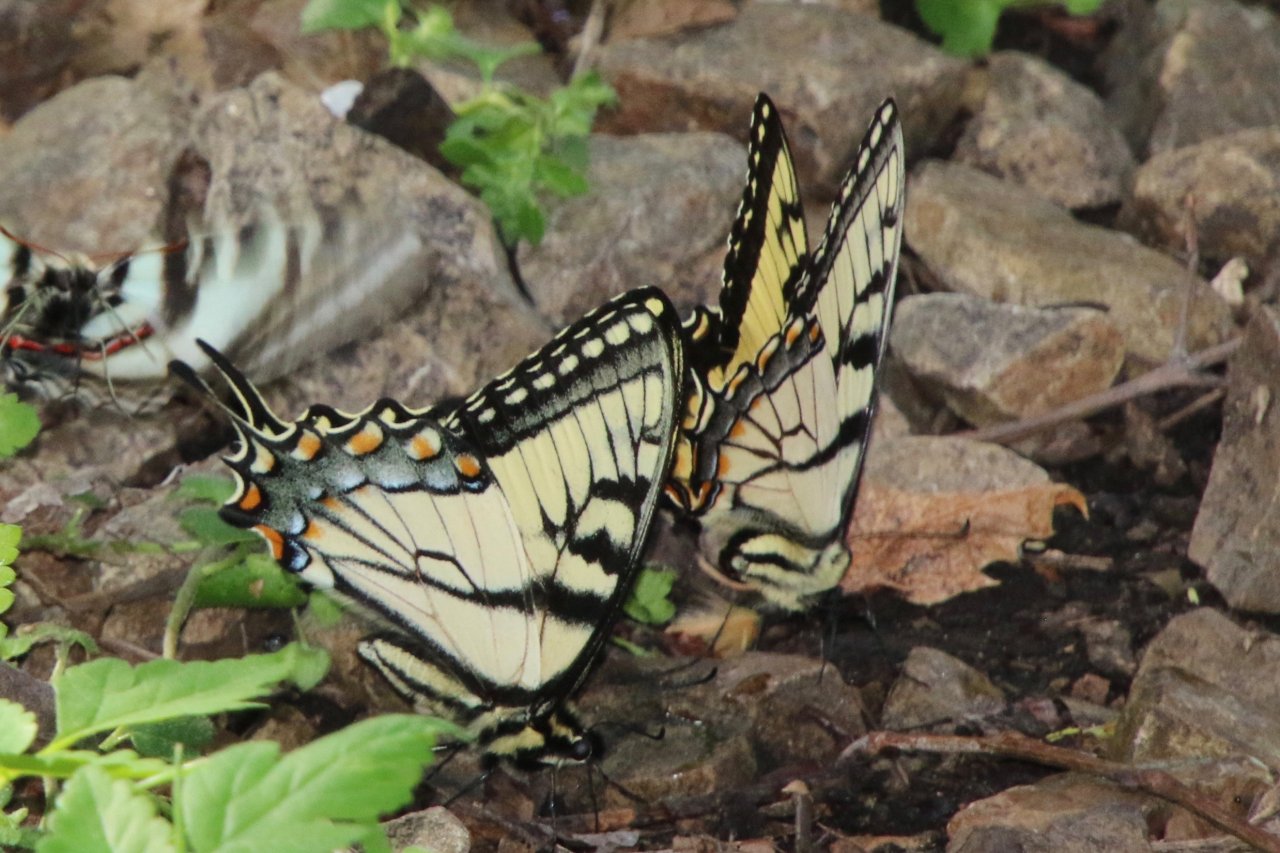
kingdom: Animalia
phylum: Arthropoda
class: Insecta
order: Lepidoptera
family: Papilionidae
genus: Pterourus
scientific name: Pterourus glaucus
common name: Eastern Tiger Swallowtail
